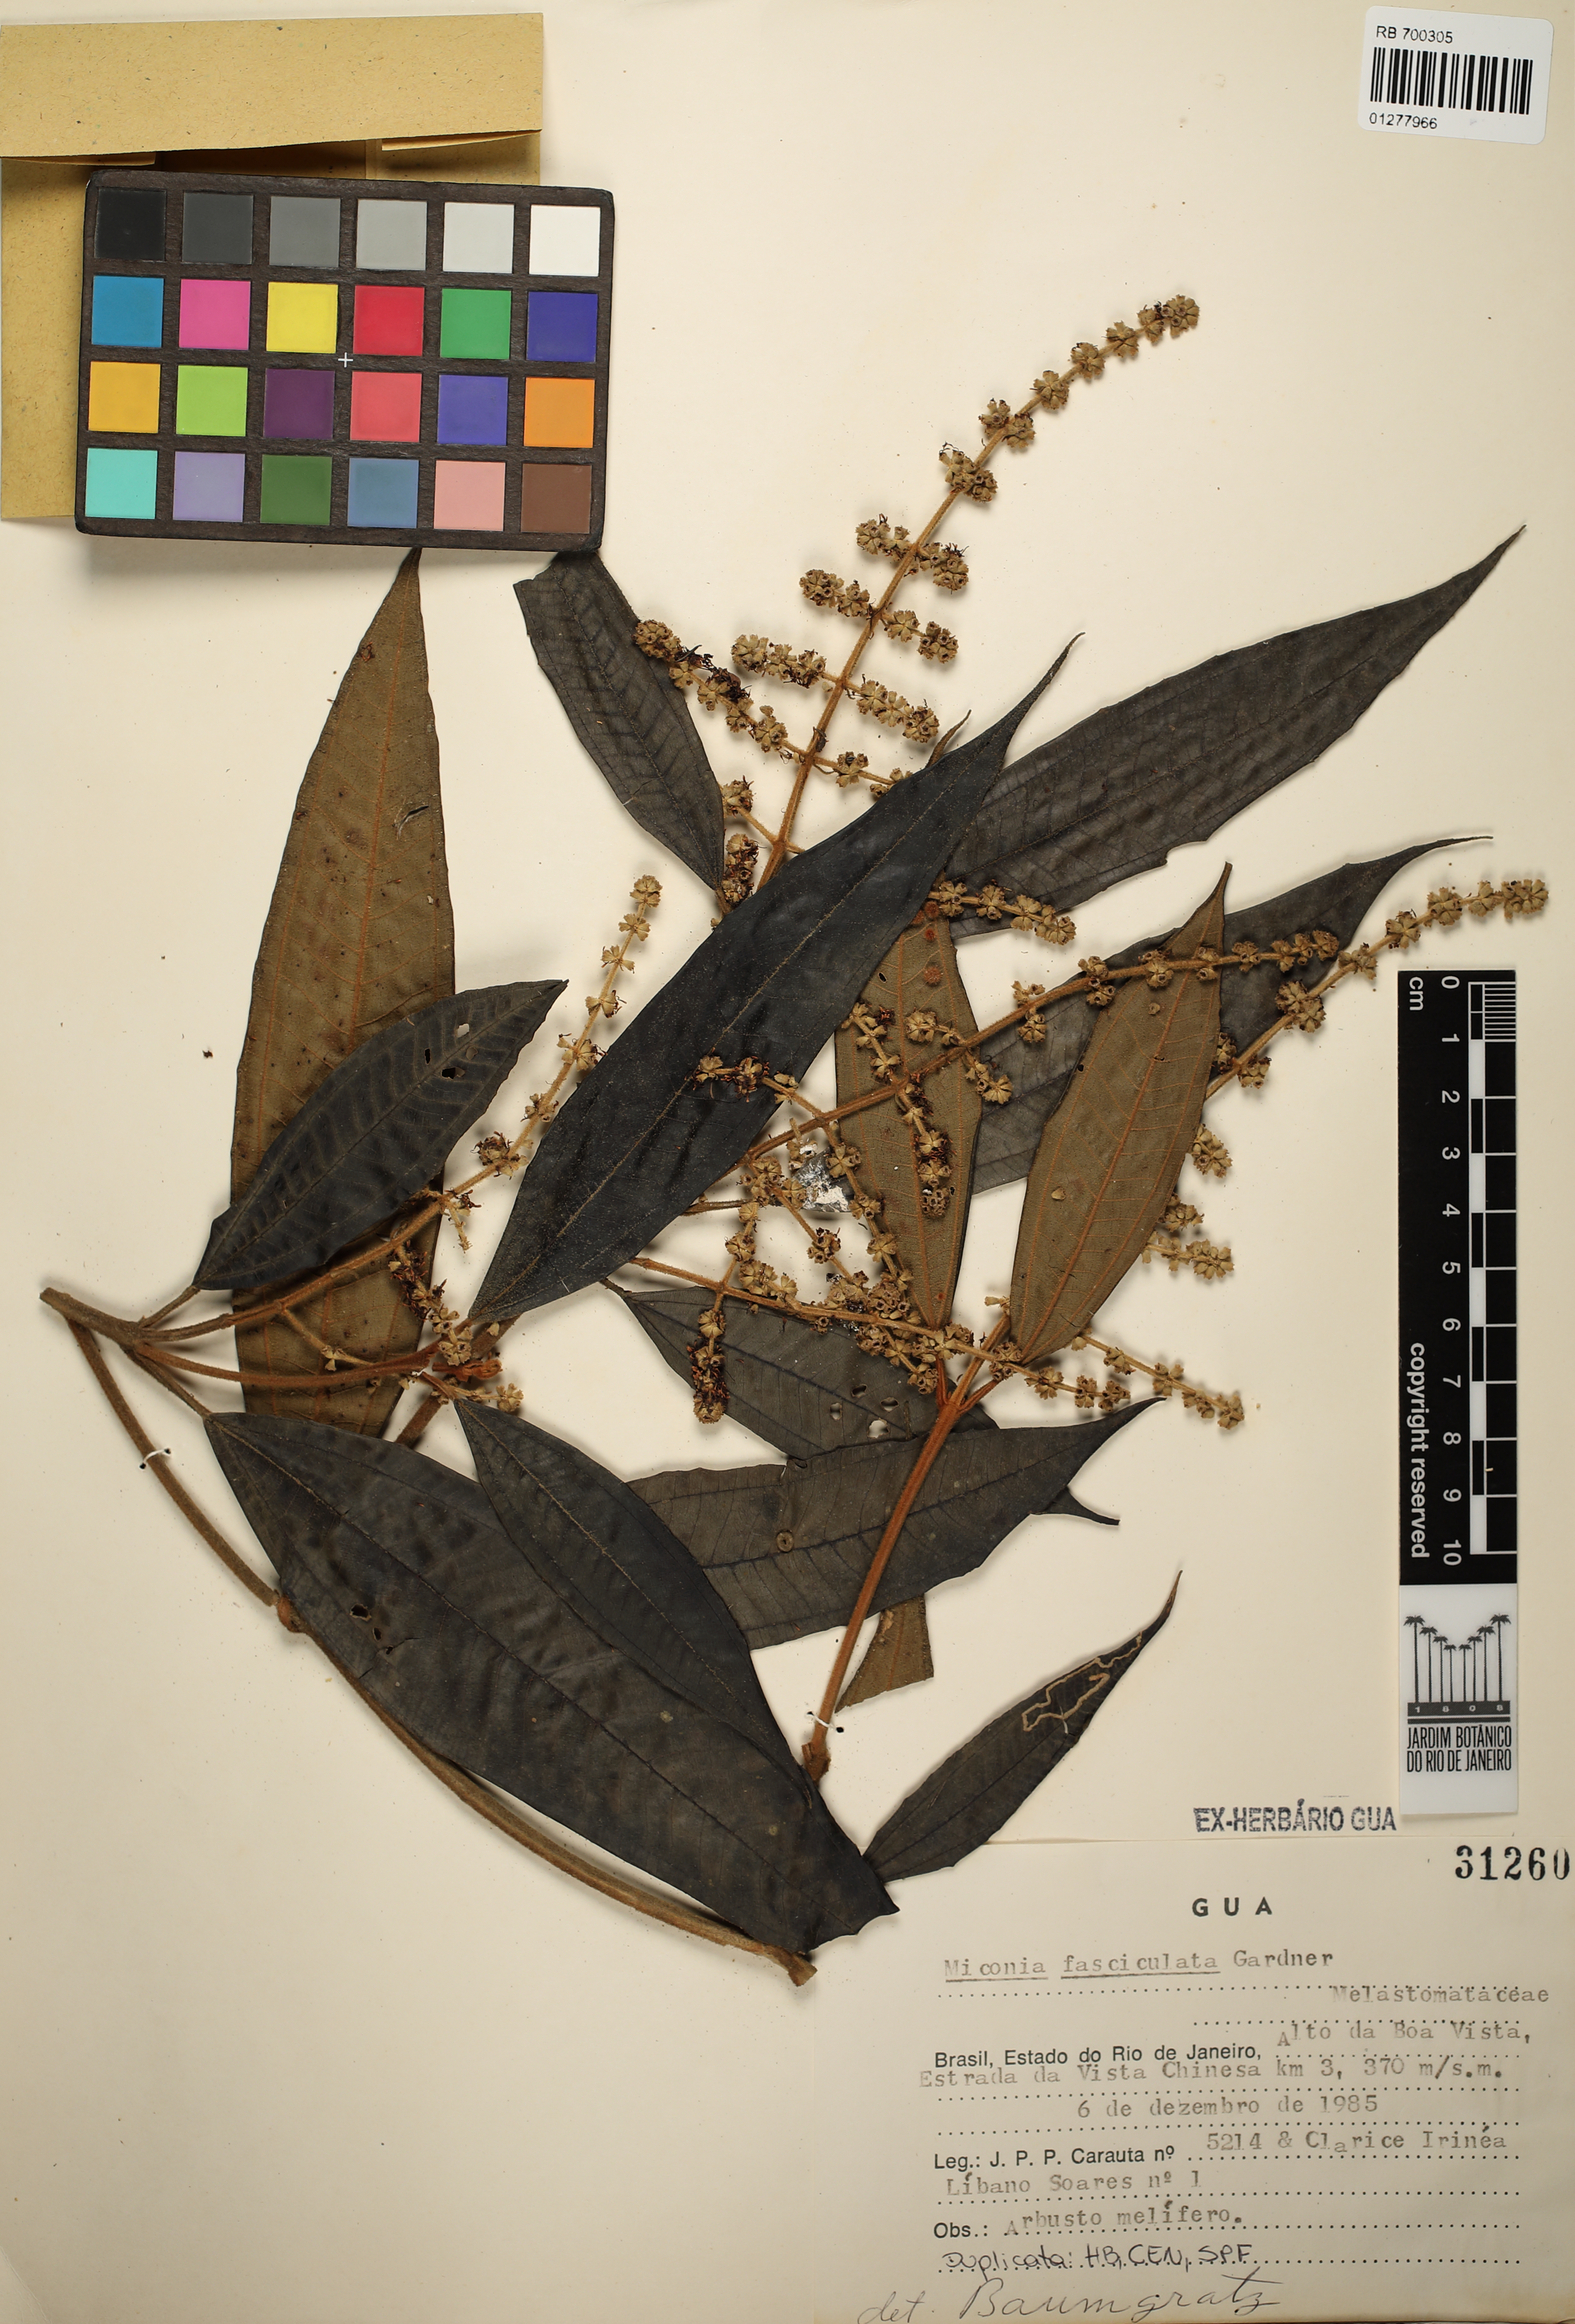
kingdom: Plantae
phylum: Tracheophyta
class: Magnoliopsida
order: Myrtales
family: Melastomataceae
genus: Miconia
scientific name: Miconia fasciculata
